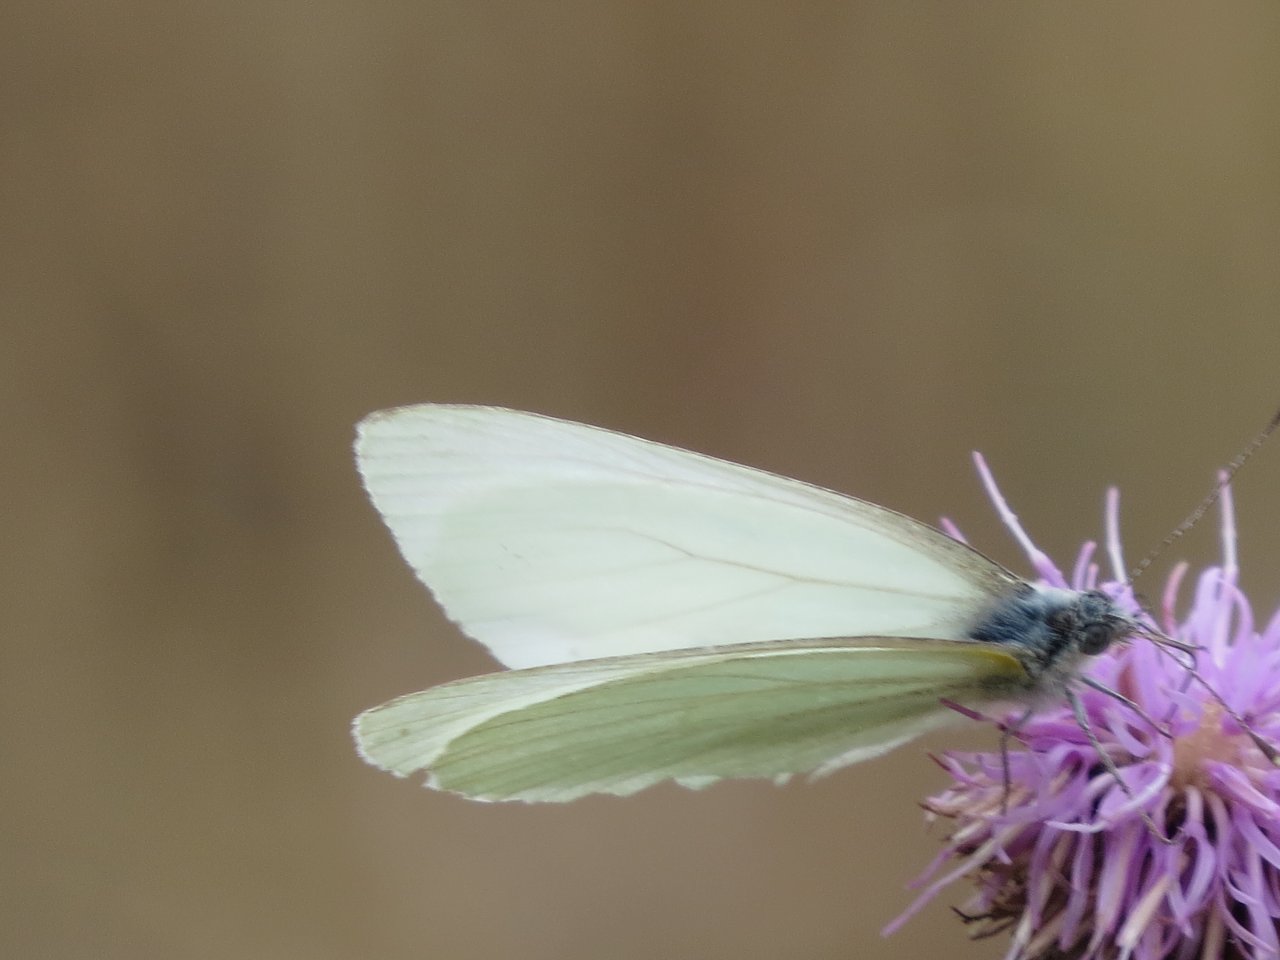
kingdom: Animalia
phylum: Arthropoda
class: Insecta
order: Lepidoptera
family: Pieridae
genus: Pieris
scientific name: Pieris oleracea
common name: Mustard White
